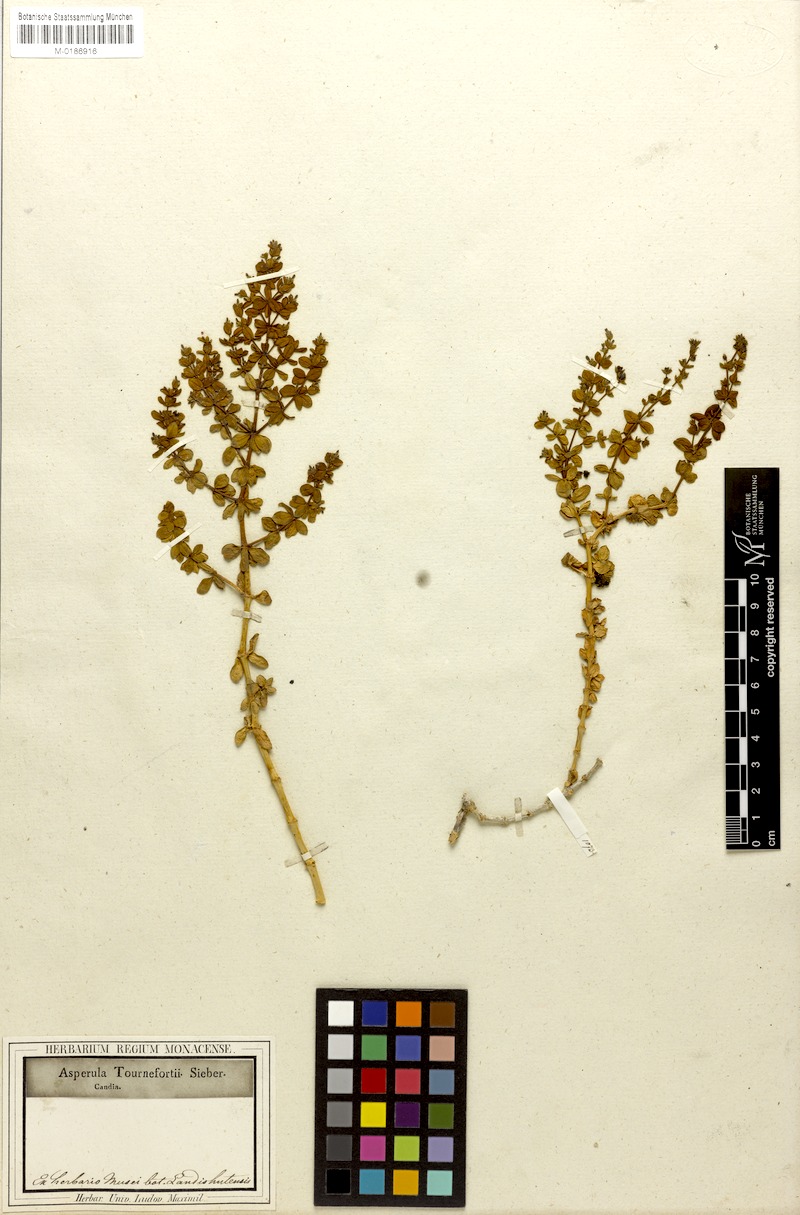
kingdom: Plantae
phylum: Tracheophyta
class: Magnoliopsida
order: Gentianales
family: Rubiaceae
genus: Asperula
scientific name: Asperula tournefortii
